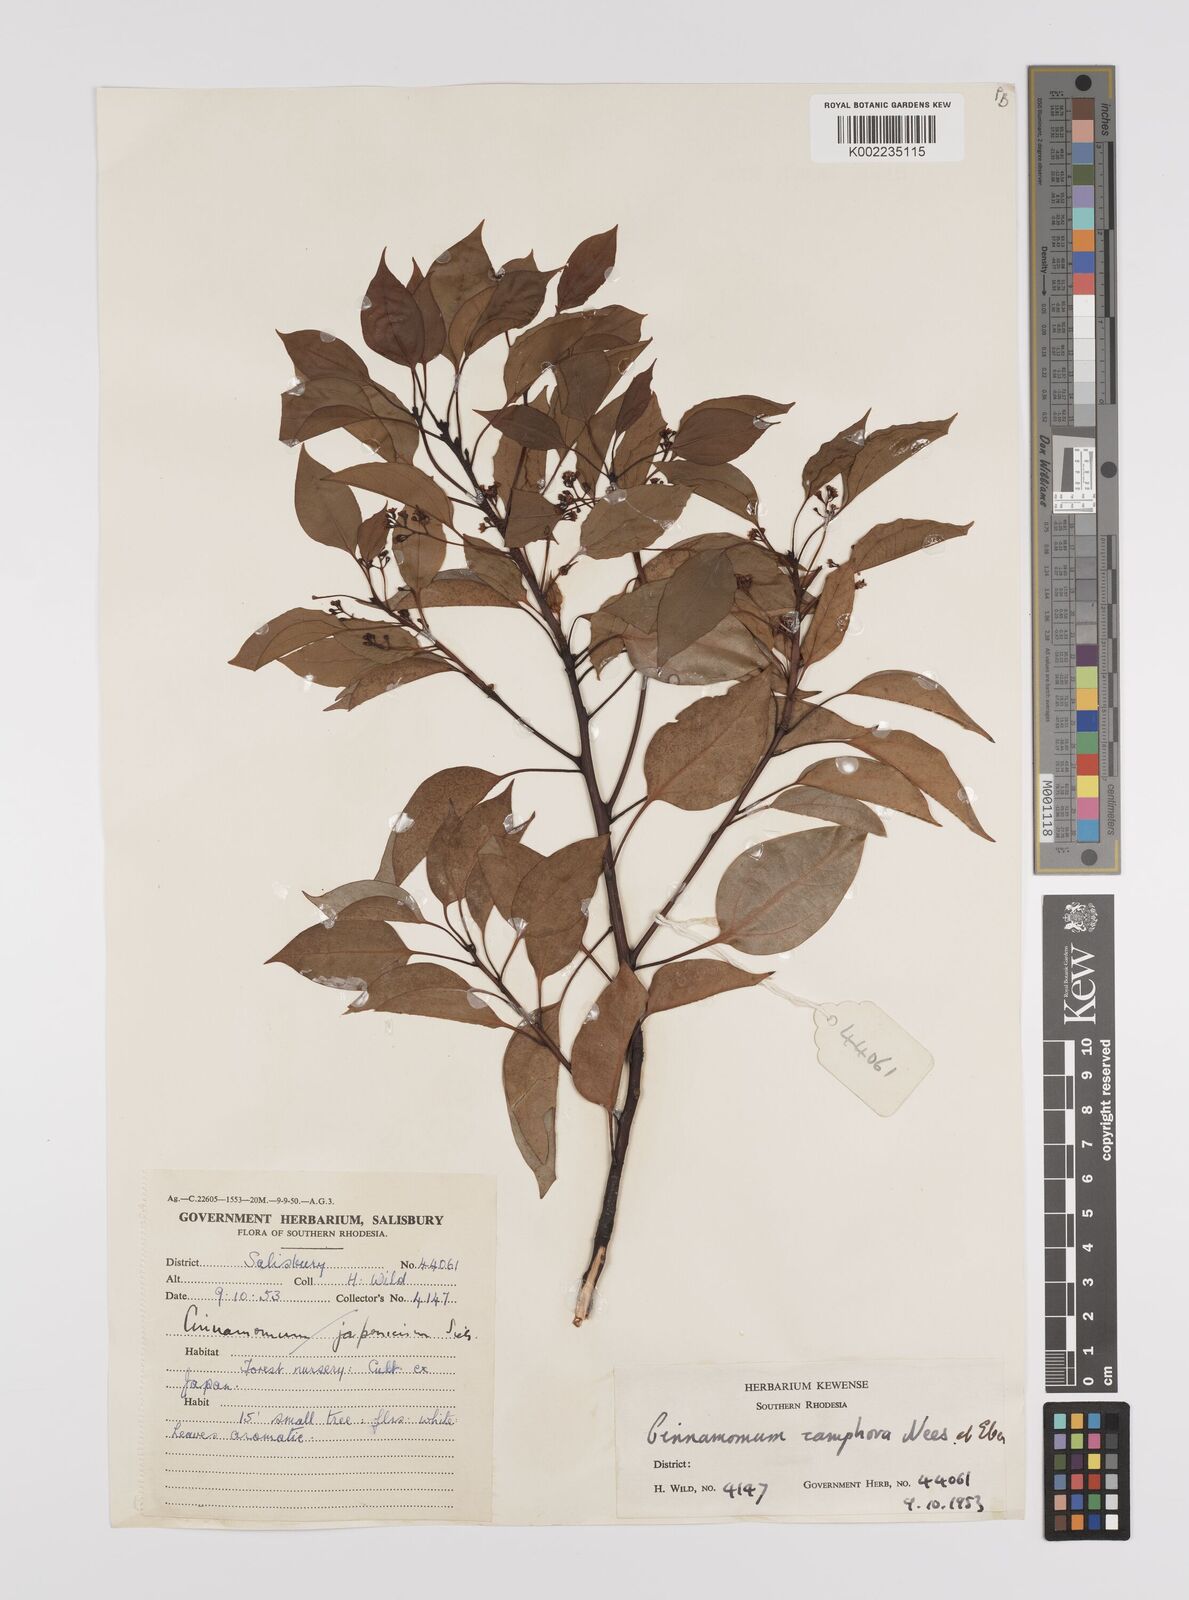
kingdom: Plantae
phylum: Tracheophyta
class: Magnoliopsida
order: Laurales
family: Lauraceae
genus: Cinnamomum
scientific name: Cinnamomum camphora
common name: Camphortree
